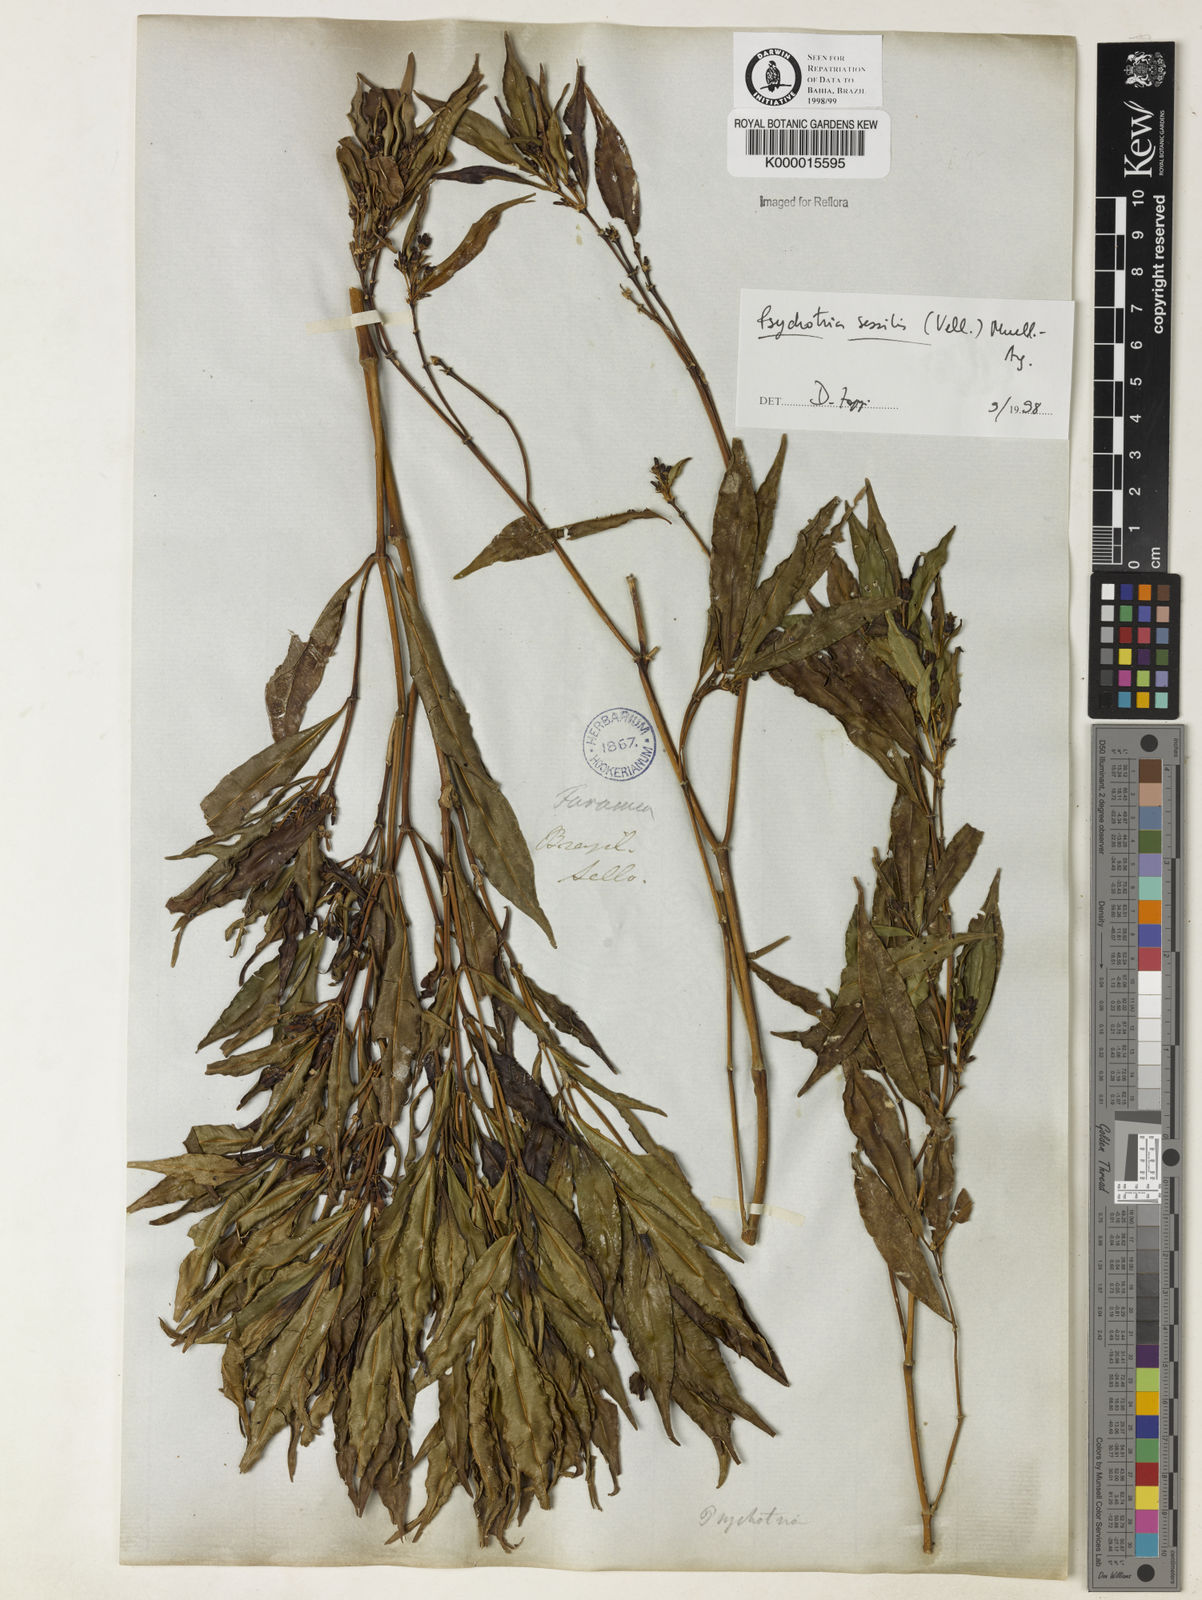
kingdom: Plantae
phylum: Tracheophyta
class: Magnoliopsida
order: Gentianales
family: Rubiaceae
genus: Psychotria
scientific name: Psychotria
